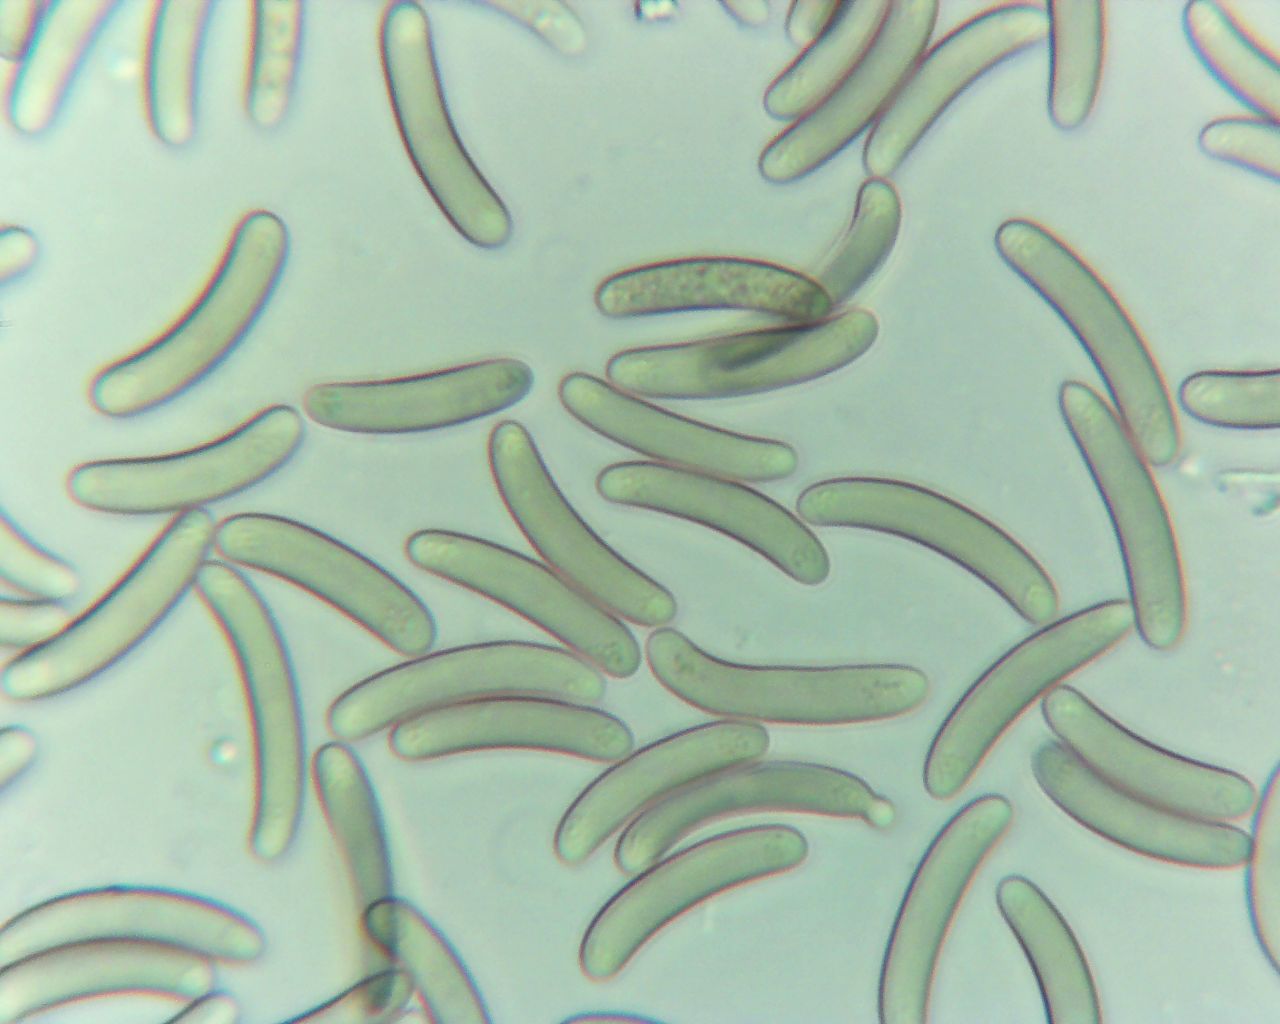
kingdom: Fungi
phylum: Ascomycota
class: Sordariomycetes
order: Xylariales
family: Diatrypaceae
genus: Eutypella
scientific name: Eutypella quaternata
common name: bøge-korsprik
